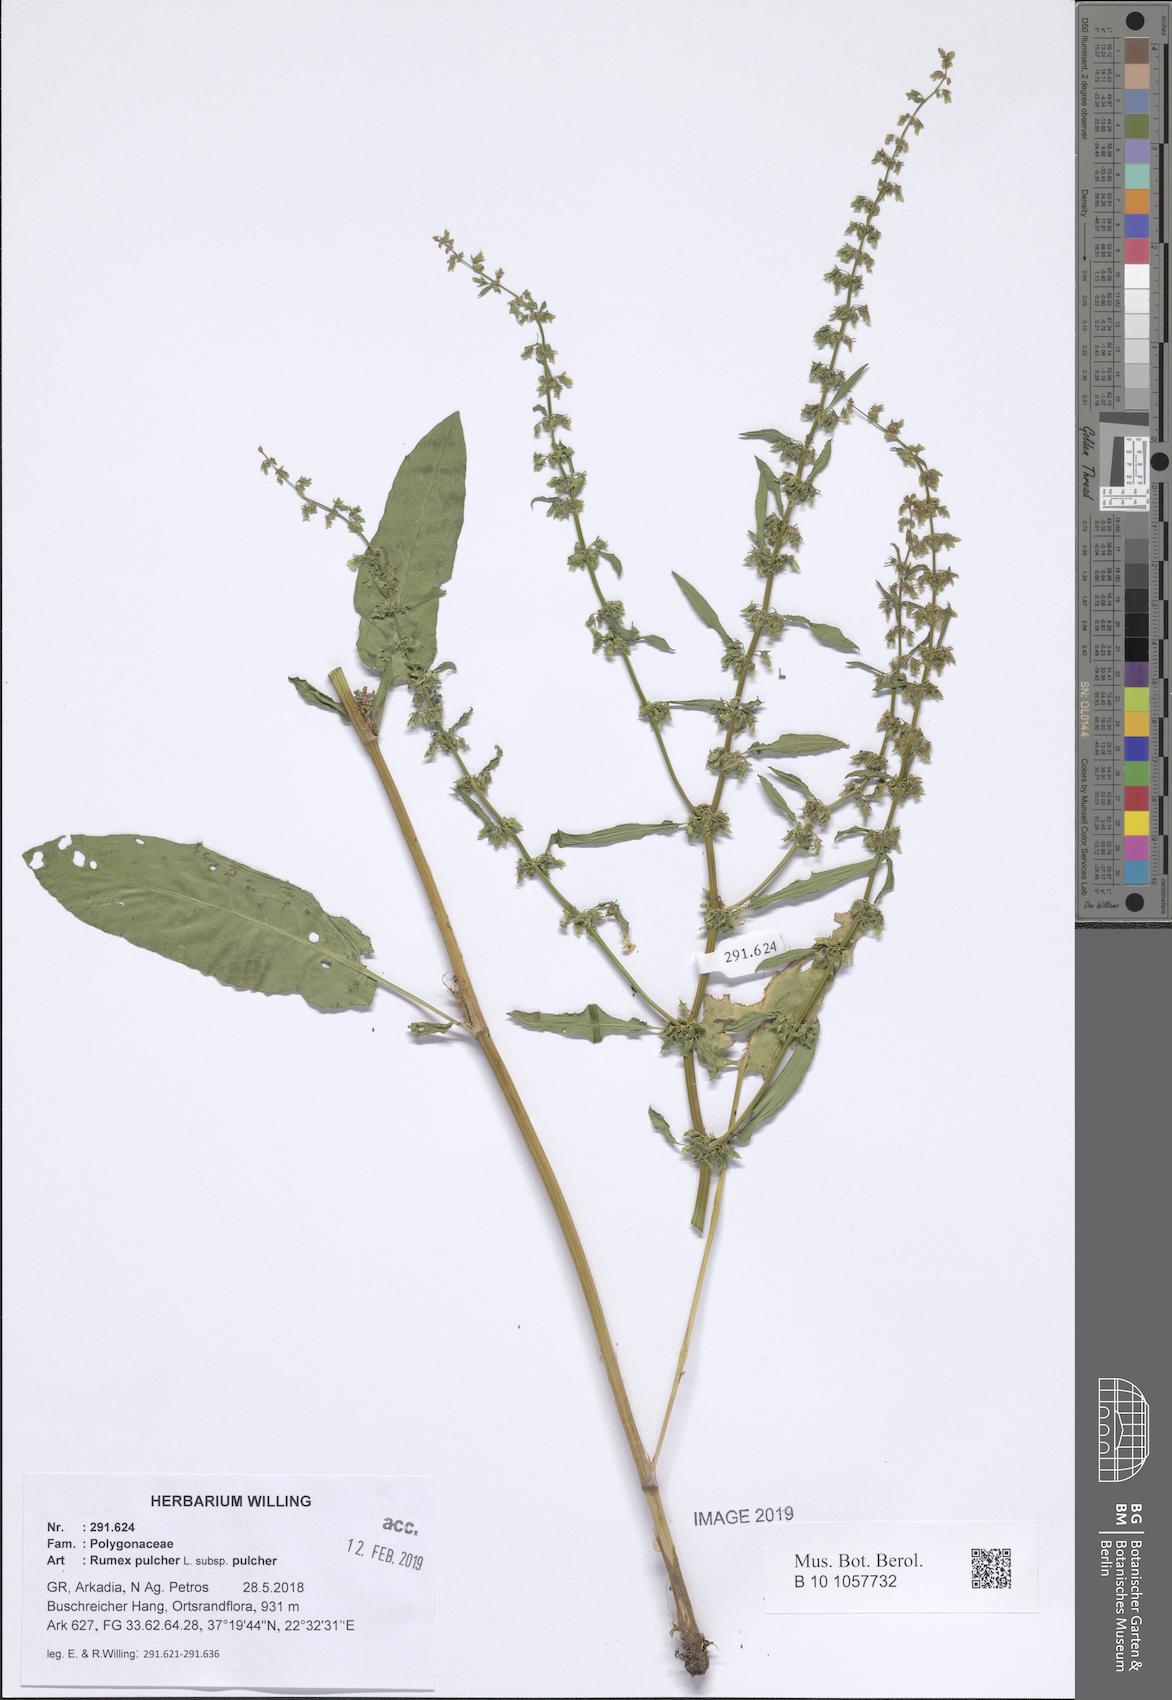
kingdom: Plantae
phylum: Tracheophyta
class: Magnoliopsida
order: Caryophyllales
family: Polygonaceae
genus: Rumex
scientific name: Rumex pulcher
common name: Fiddle dock
